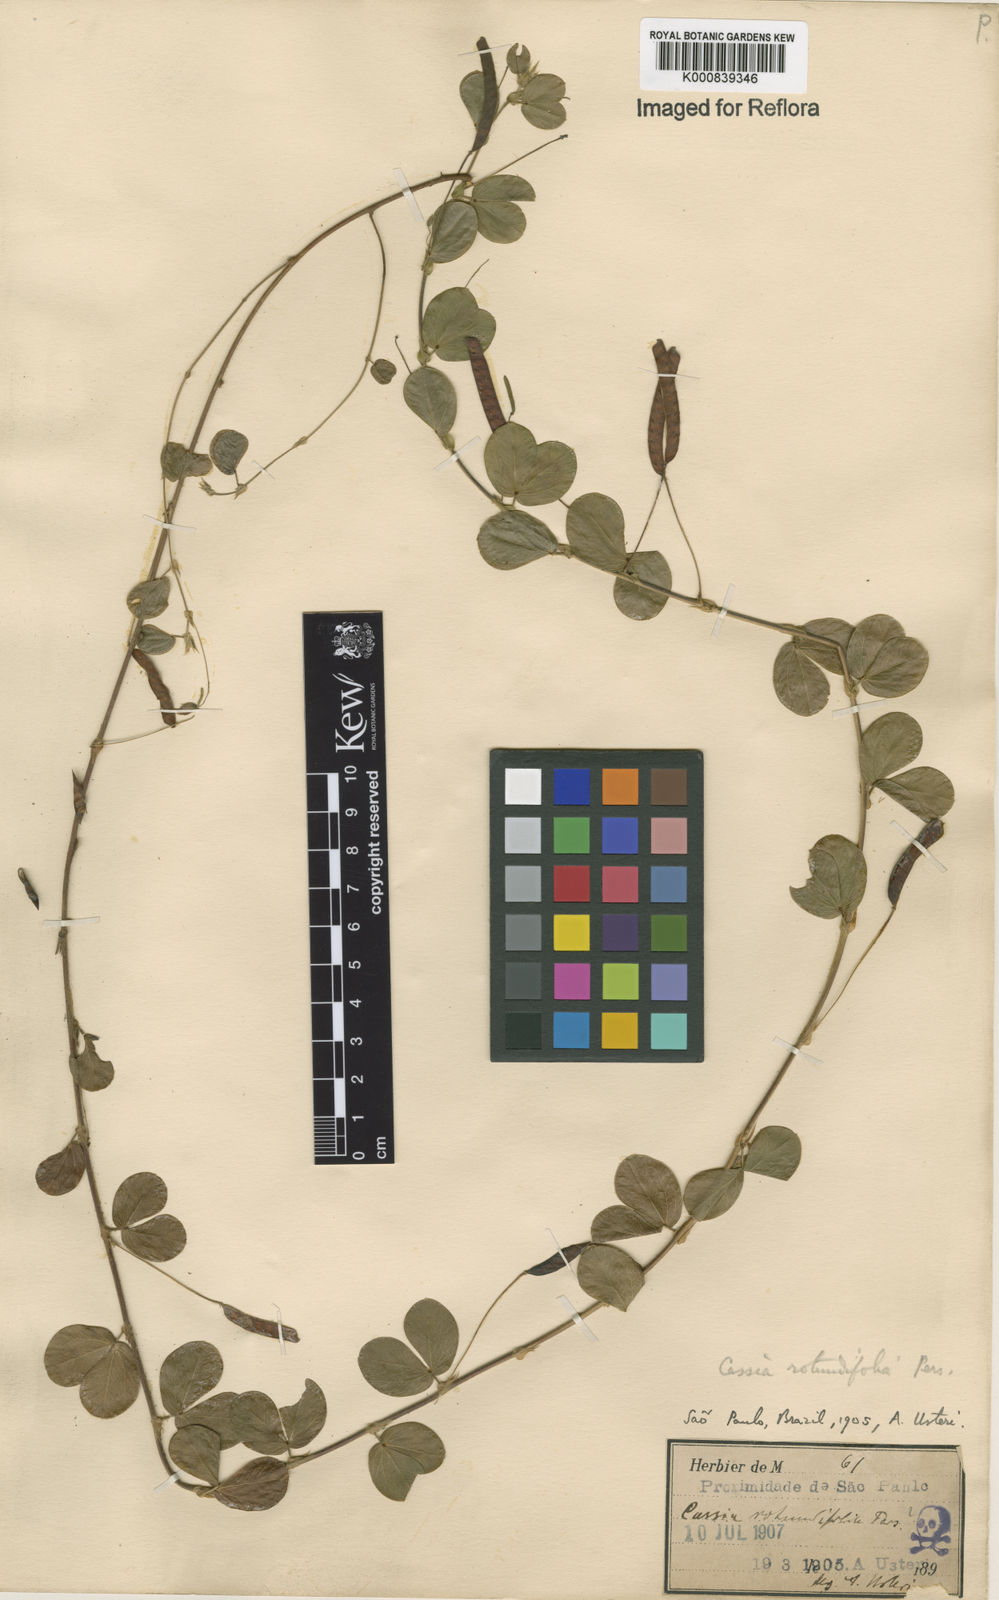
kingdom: Plantae
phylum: Tracheophyta
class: Magnoliopsida
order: Fabales
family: Fabaceae
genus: Chamaecrista
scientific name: Chamaecrista rotundifolia
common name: Round-leaf cassia
